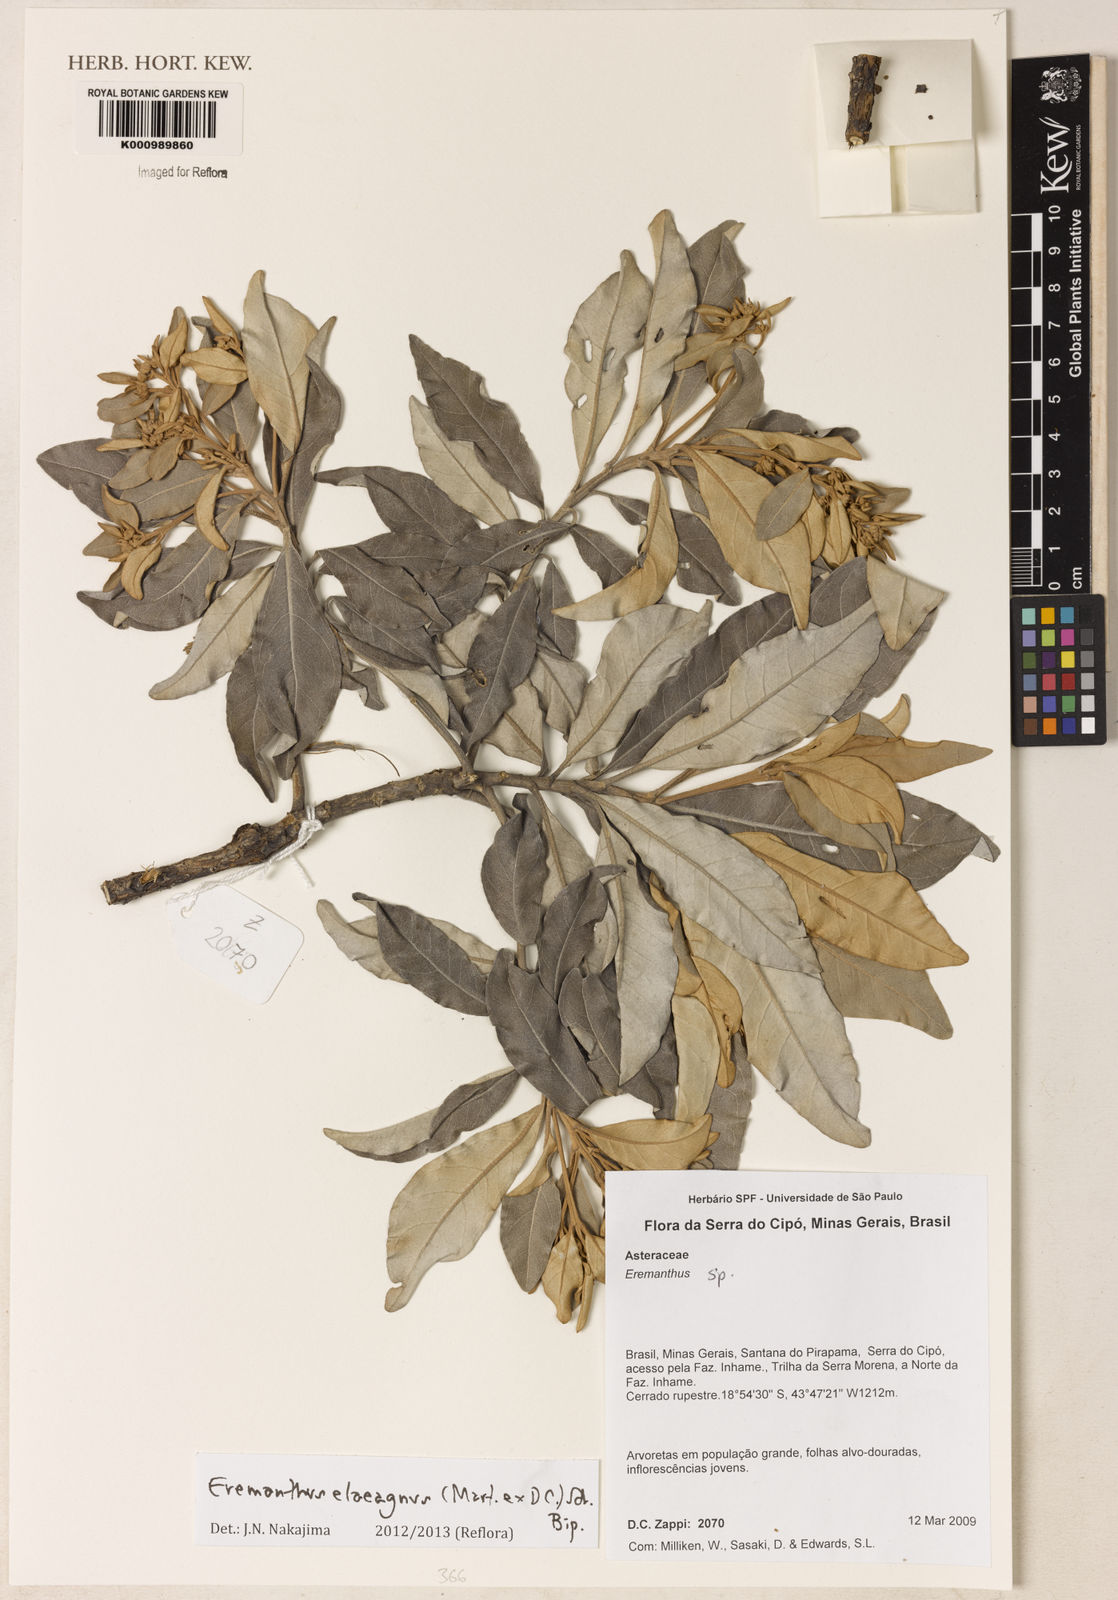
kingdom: Plantae
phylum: Tracheophyta
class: Magnoliopsida
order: Asterales
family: Asteraceae
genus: Eremanthus
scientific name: Eremanthus elaeagnus
